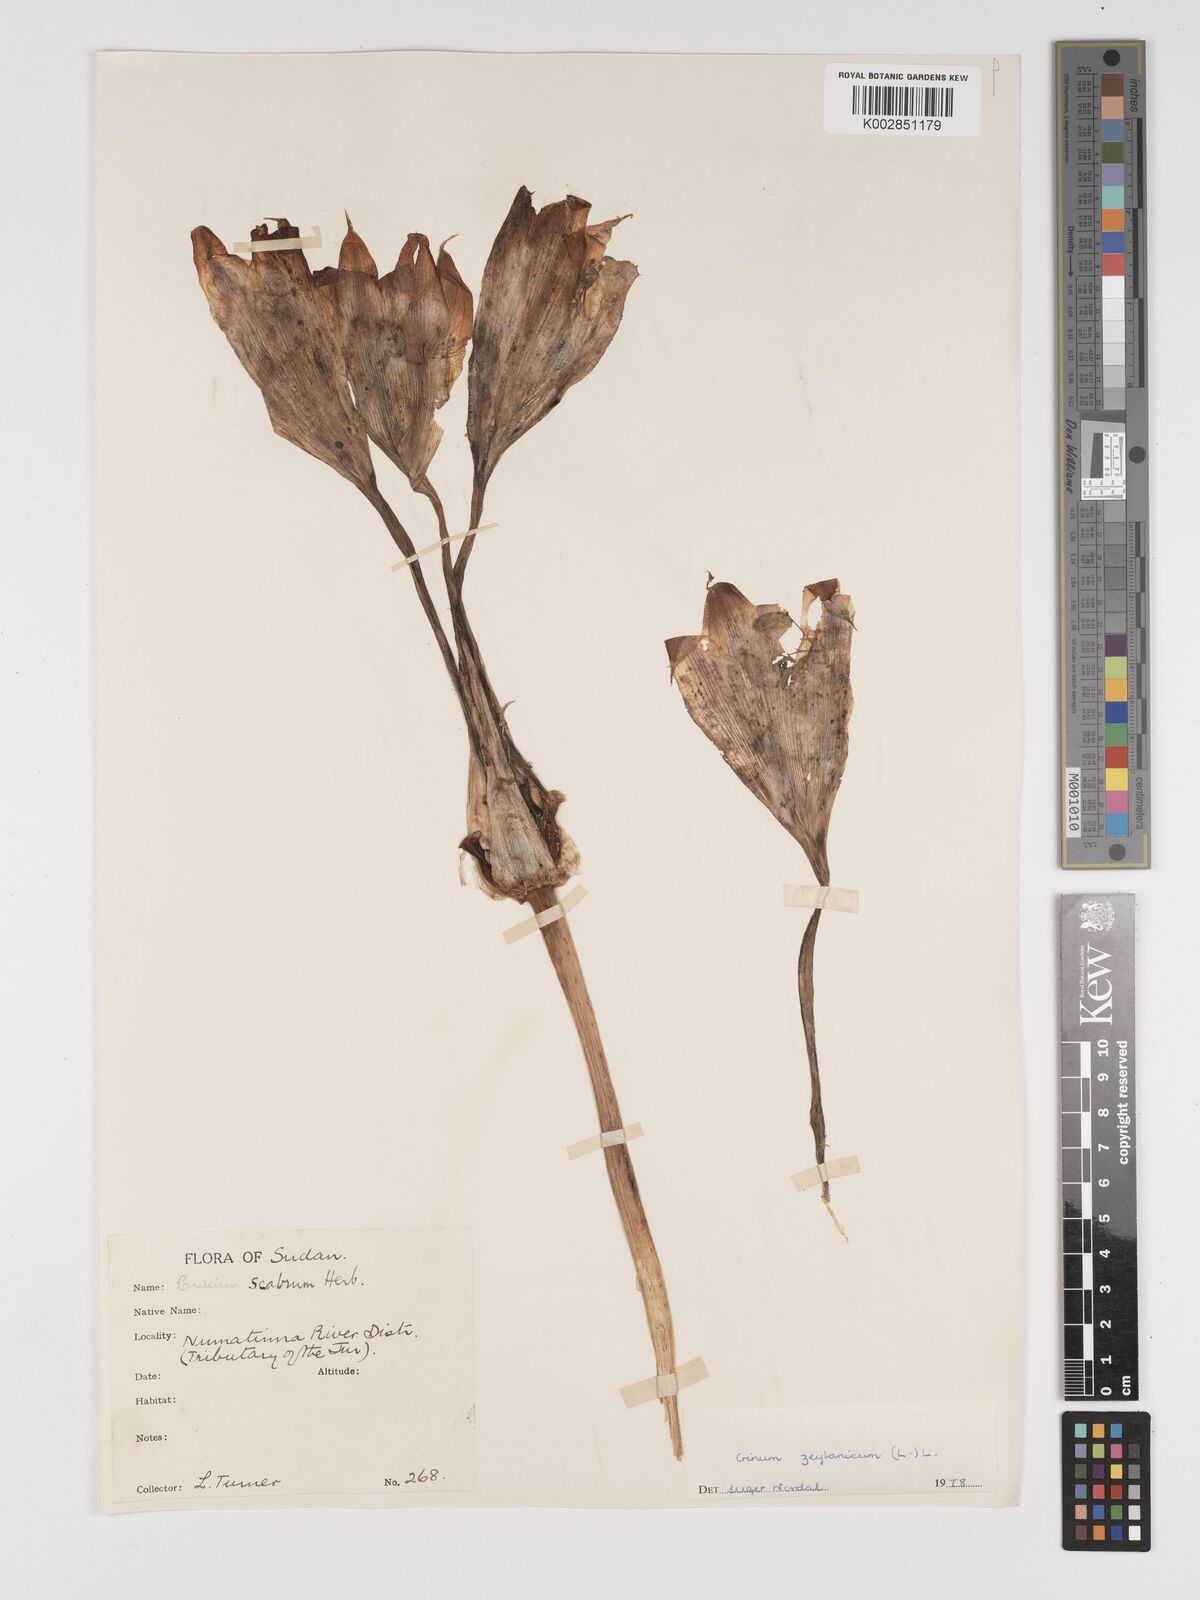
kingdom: Plantae
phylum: Tracheophyta
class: Liliopsida
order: Asparagales
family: Amaryllidaceae
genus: Crinum
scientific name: Crinum zeylanicum
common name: Ceylon swamplily
